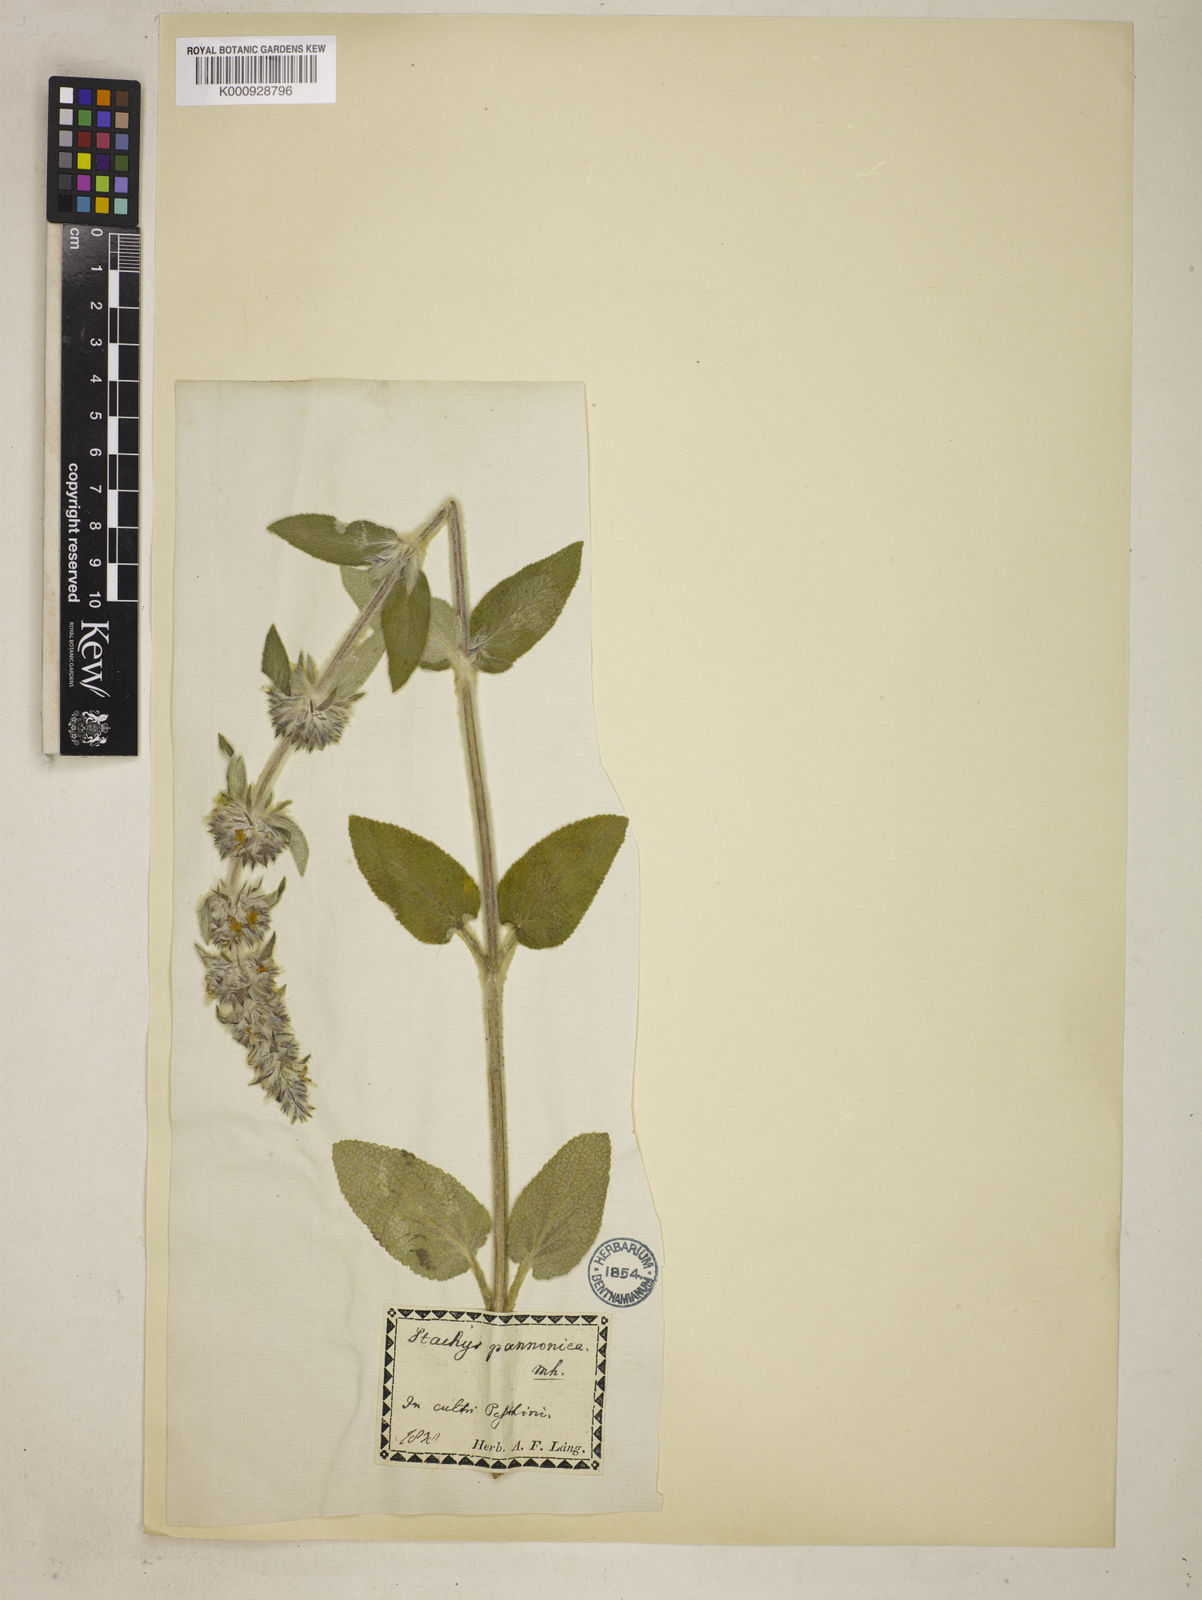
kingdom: Plantae
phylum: Tracheophyta
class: Magnoliopsida
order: Lamiales
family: Lamiaceae
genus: Stachys
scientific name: Stachys germanica
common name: Downy woundwort
